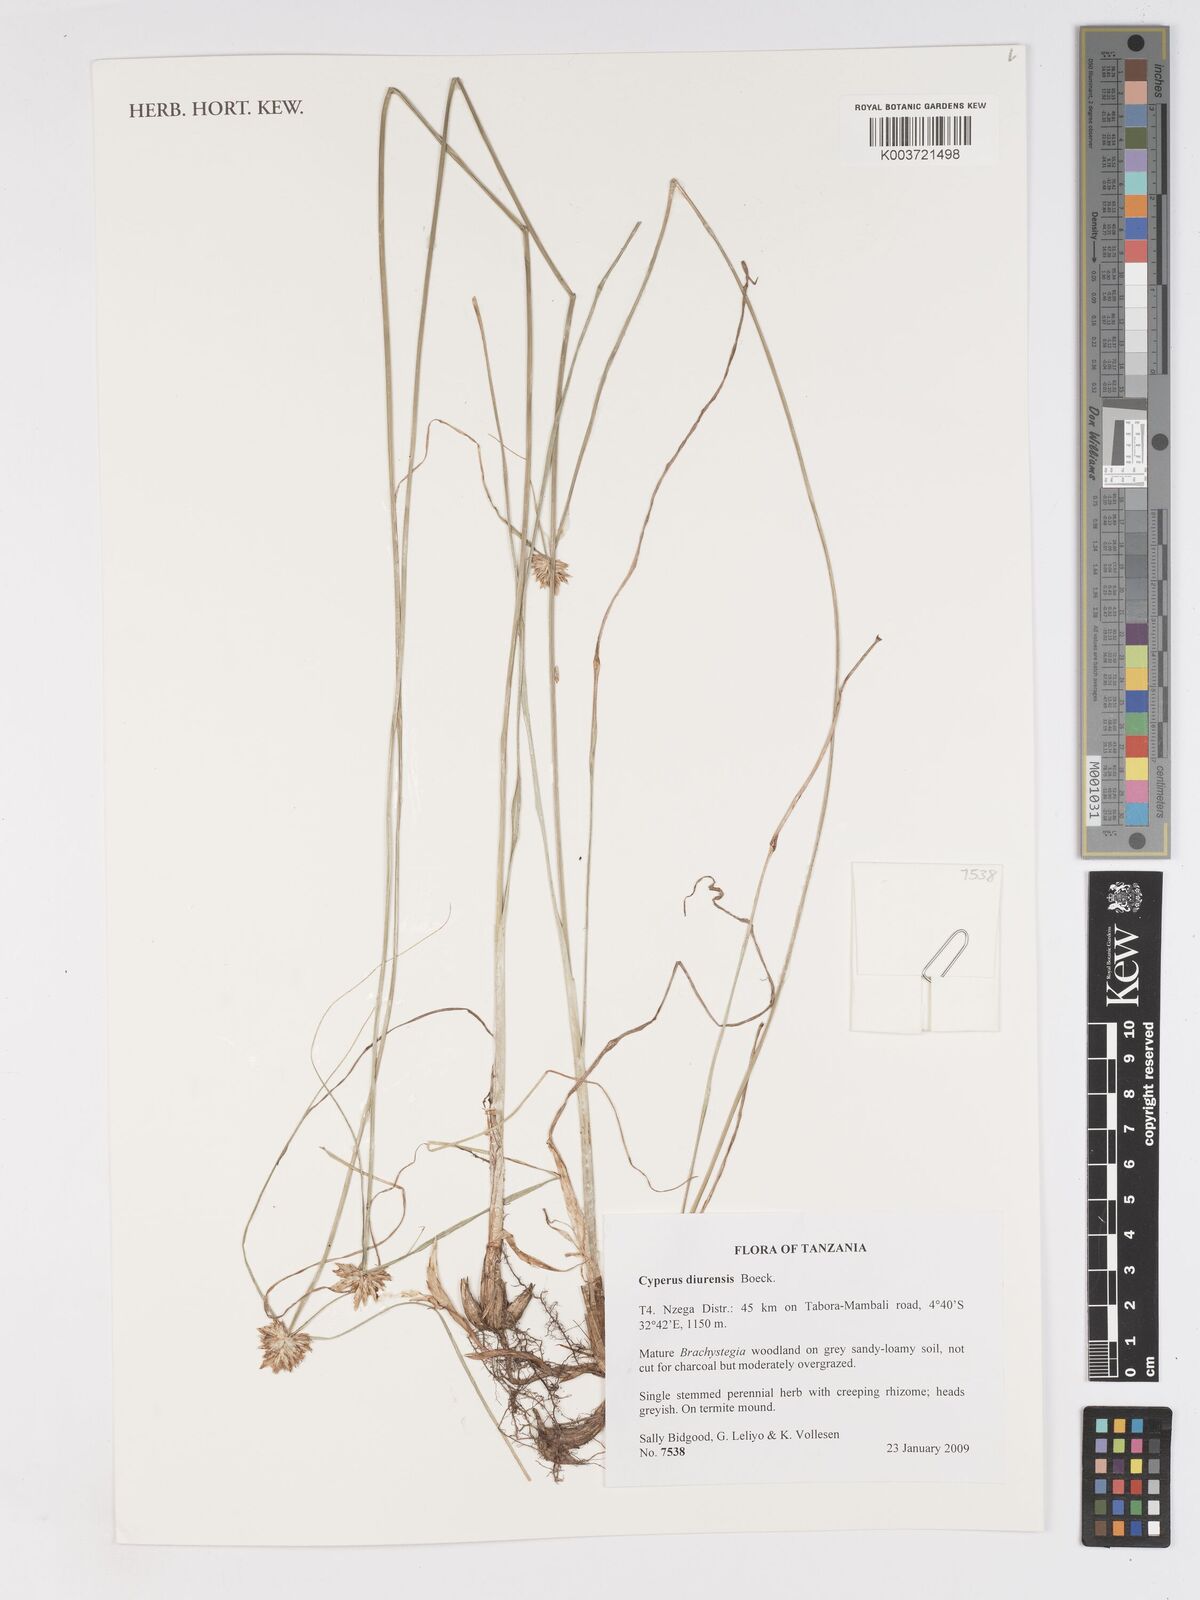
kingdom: Plantae
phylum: Tracheophyta
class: Liliopsida
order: Poales
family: Cyperaceae
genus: Cyperus
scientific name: Cyperus diurensis
